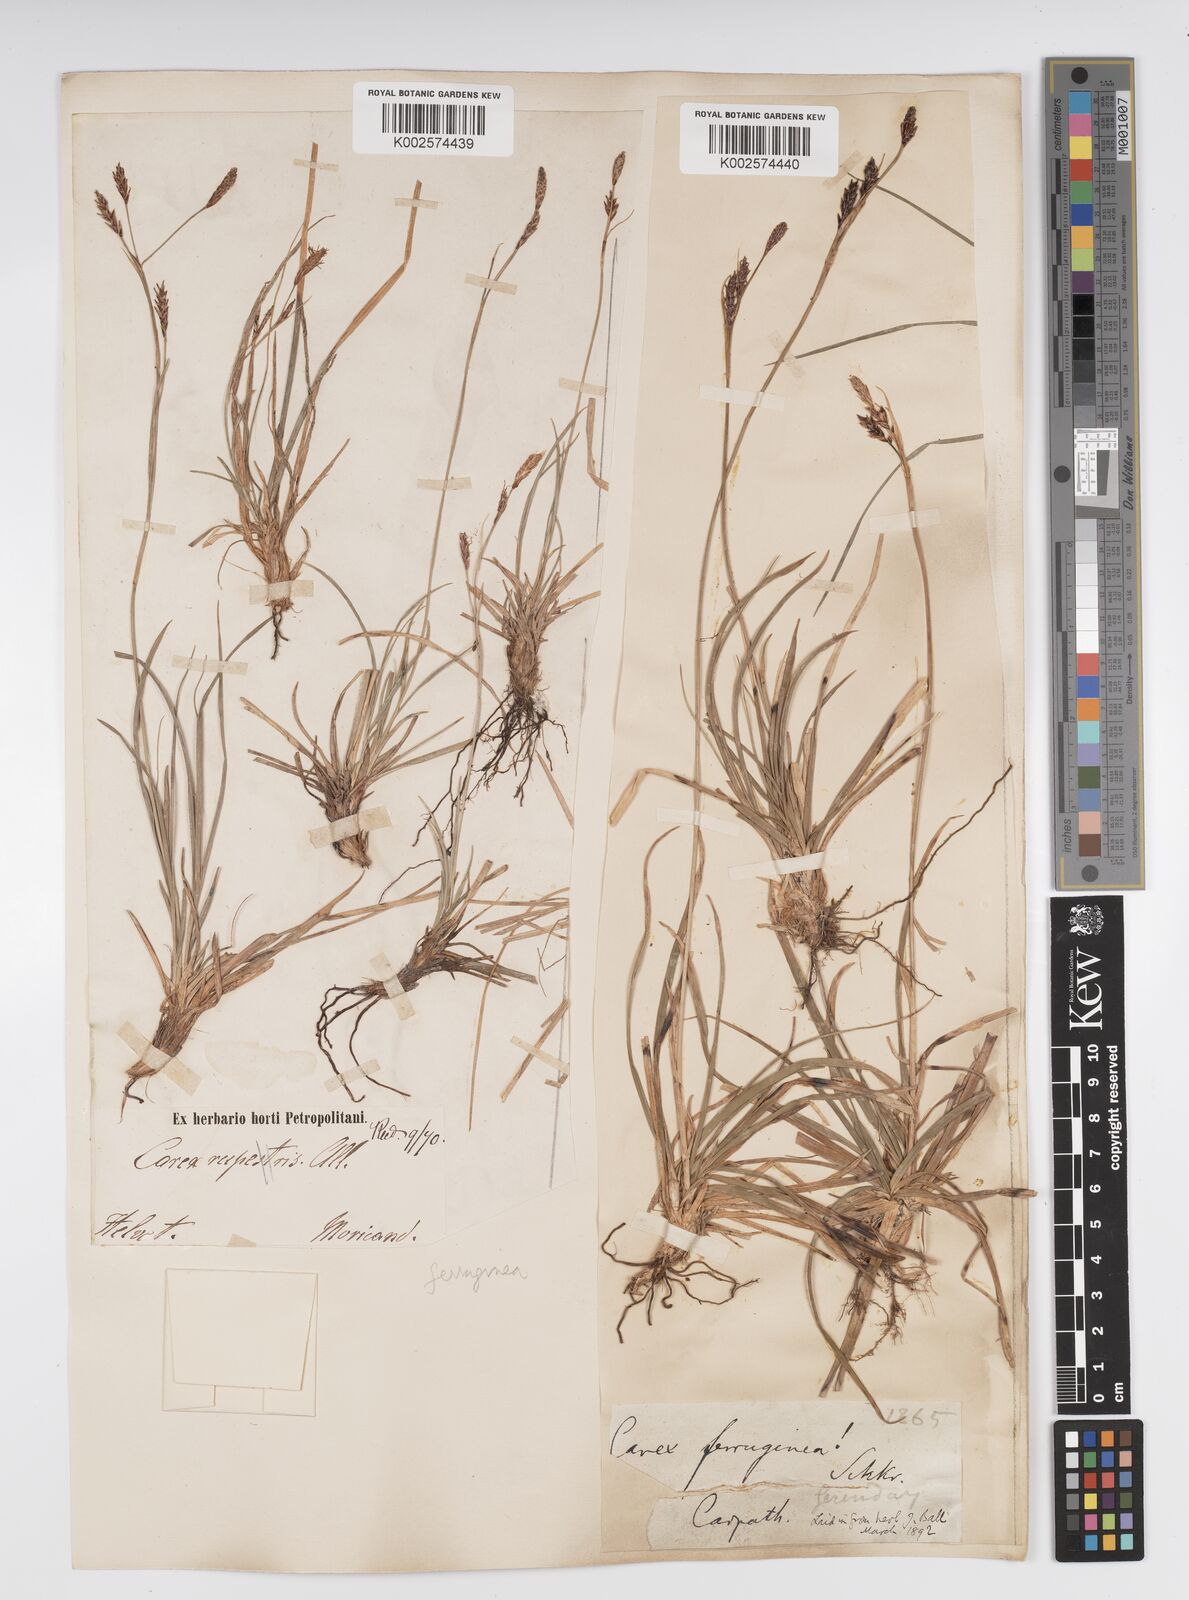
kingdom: Plantae
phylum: Tracheophyta
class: Liliopsida
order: Poales
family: Cyperaceae
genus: Carex
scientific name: Carex sempervirens
